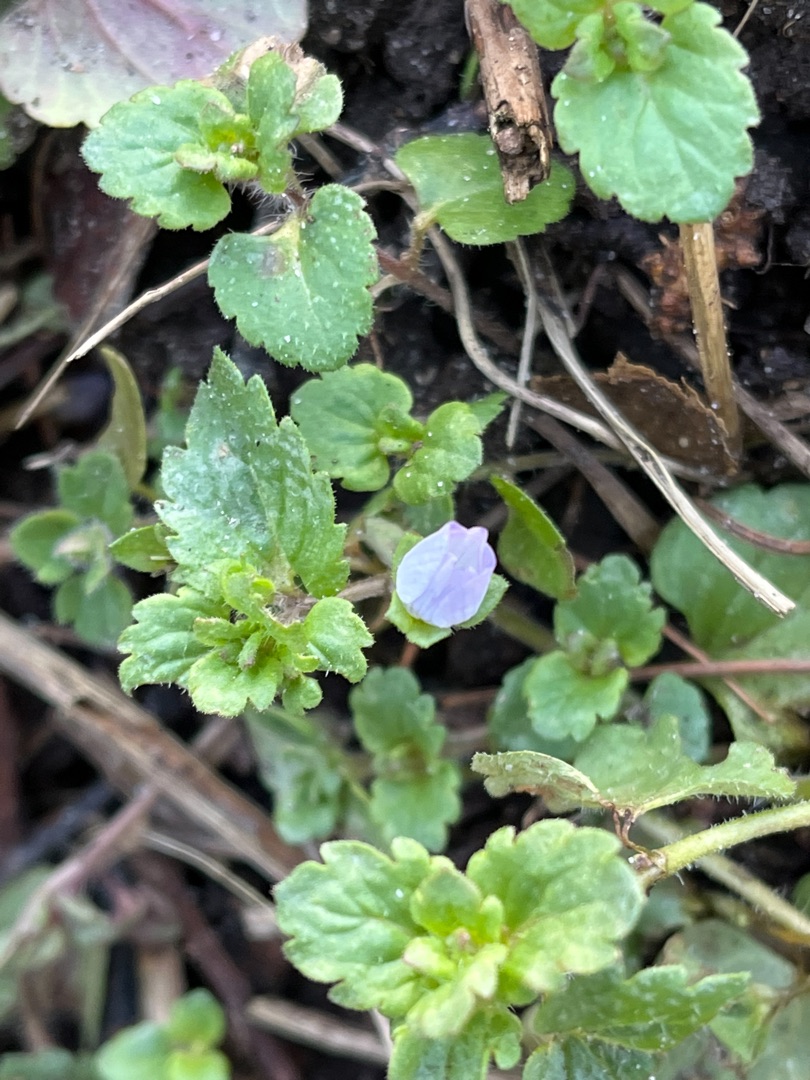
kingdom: Plantae
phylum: Tracheophyta
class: Magnoliopsida
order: Lamiales
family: Plantaginaceae
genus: Veronica
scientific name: Veronica persica
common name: Storkronet ærenpris
